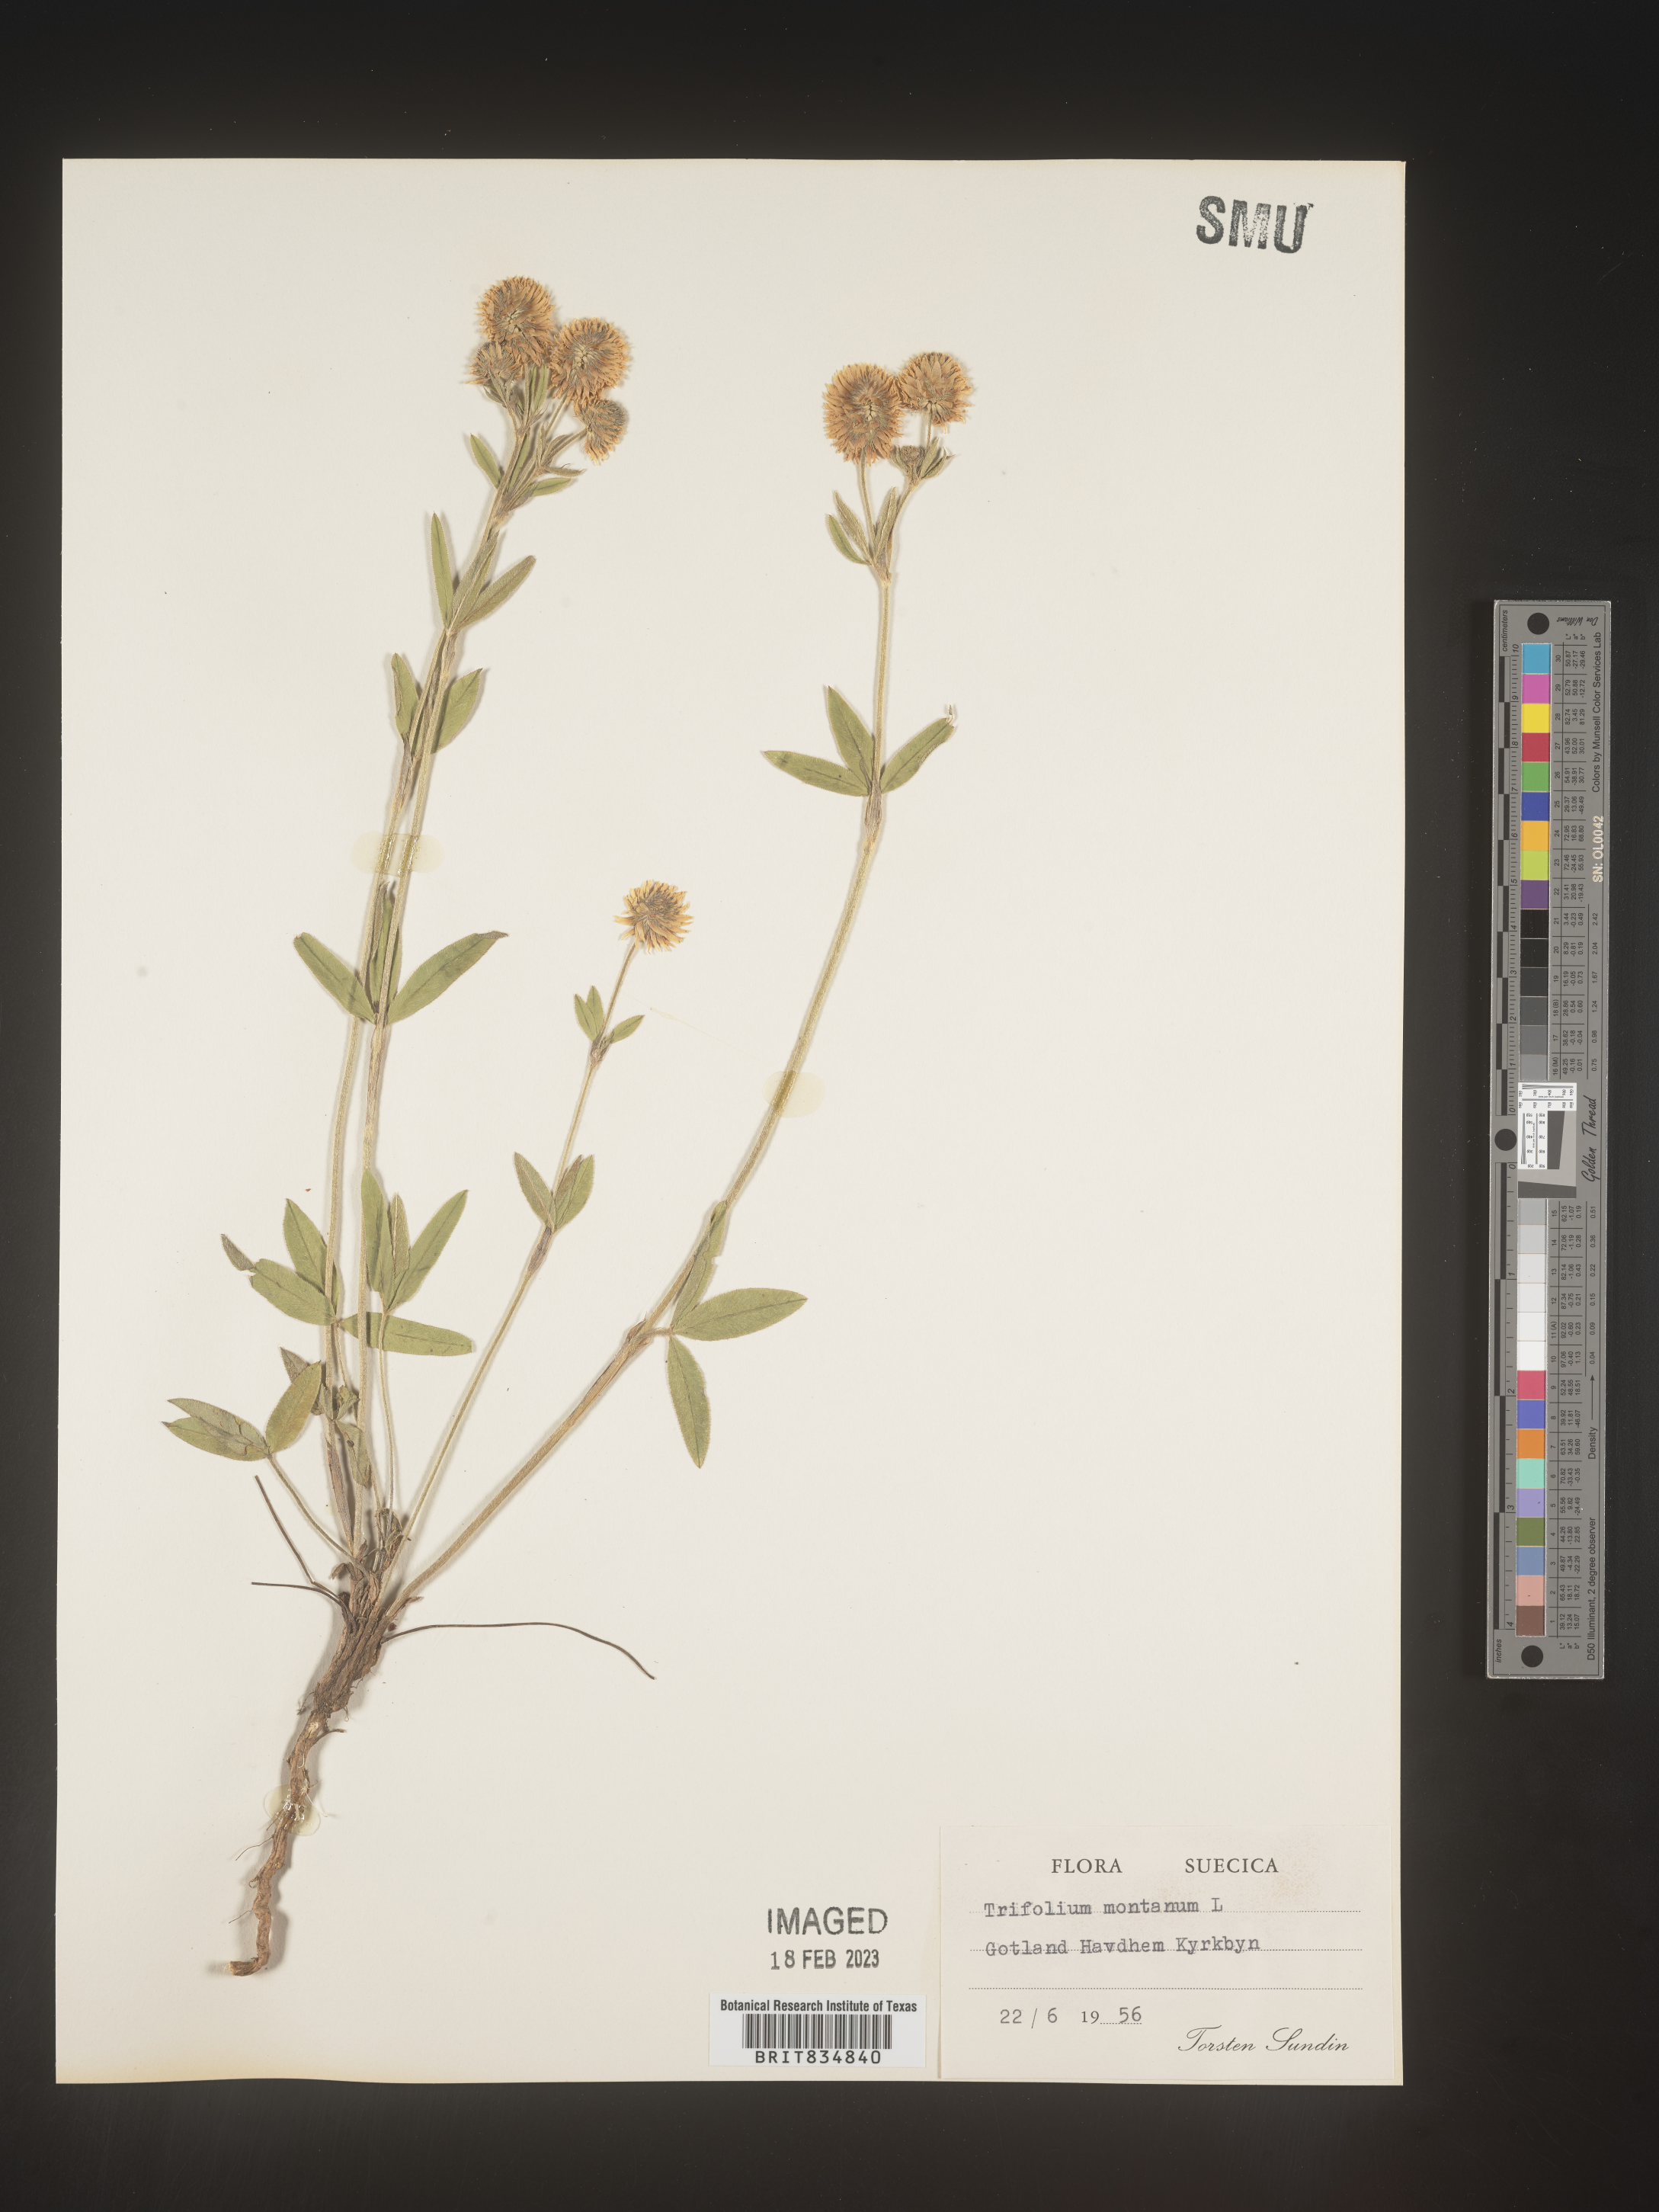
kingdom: Plantae
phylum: Tracheophyta
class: Magnoliopsida
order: Fabales
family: Fabaceae
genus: Trifolium
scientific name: Trifolium
